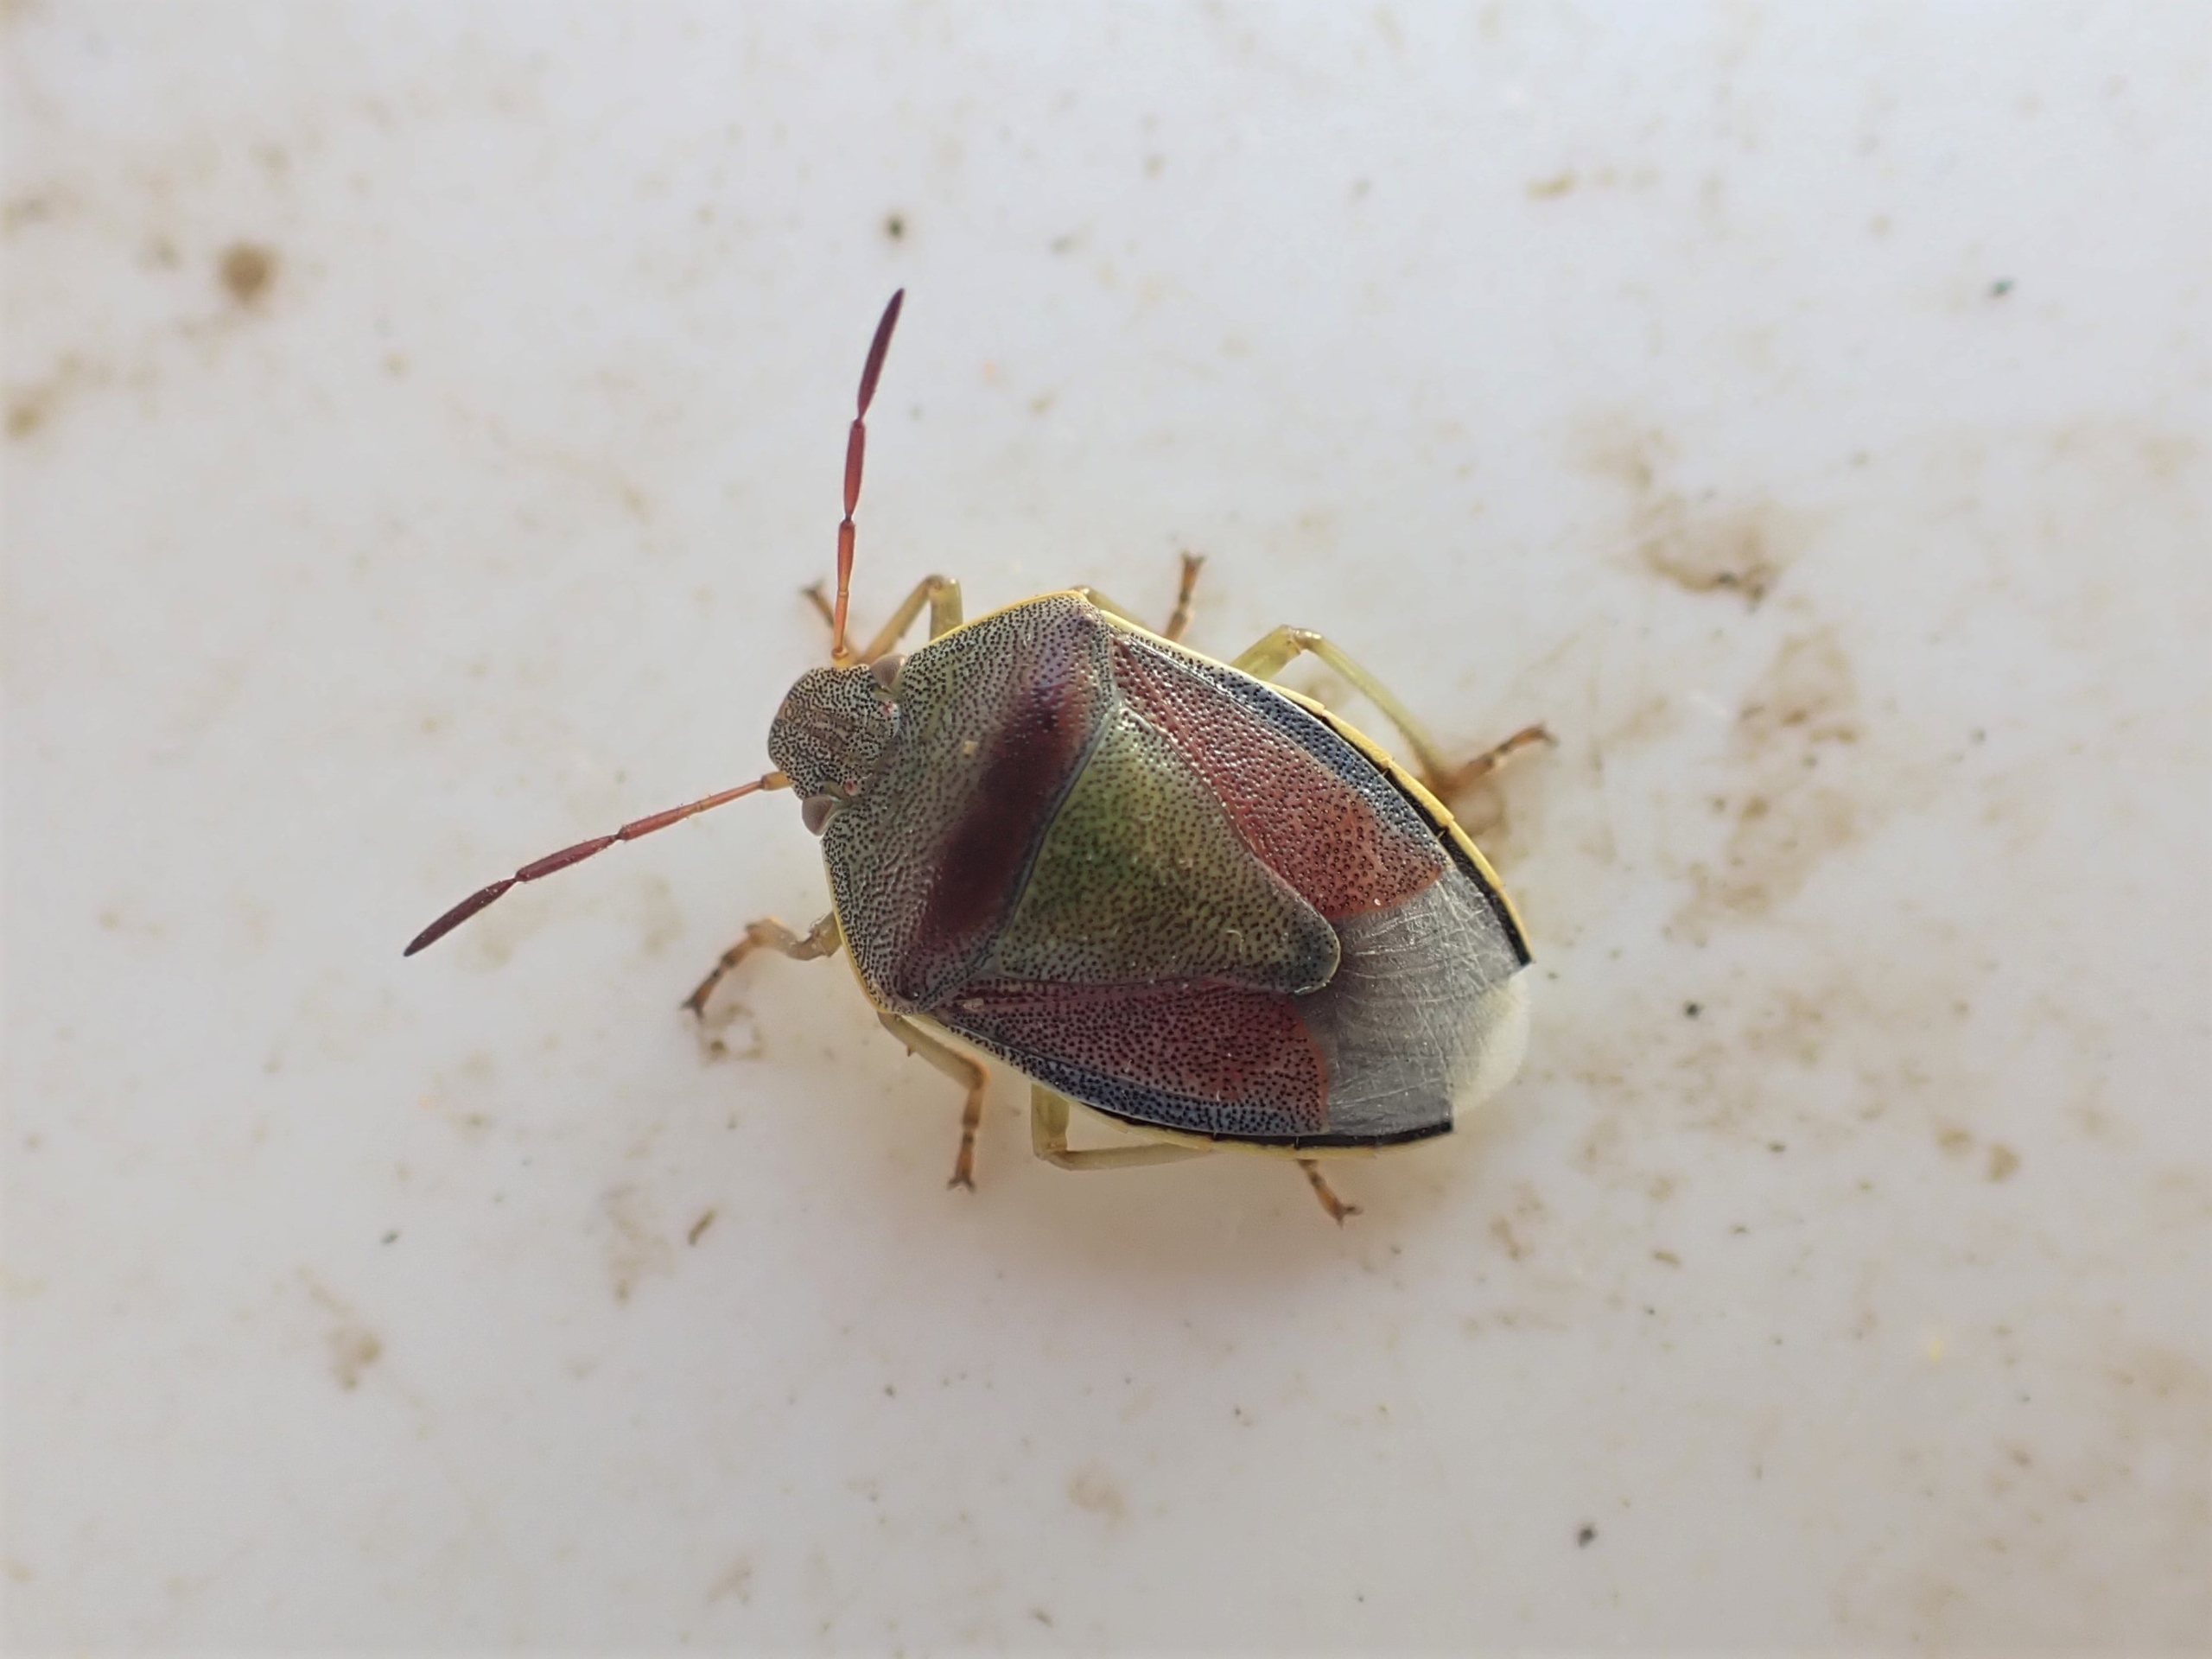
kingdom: Animalia
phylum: Arthropoda
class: Insecta
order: Hemiptera
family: Pentatomidae
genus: Piezodorus
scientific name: Piezodorus lituratus
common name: Gyvelbredtæge
